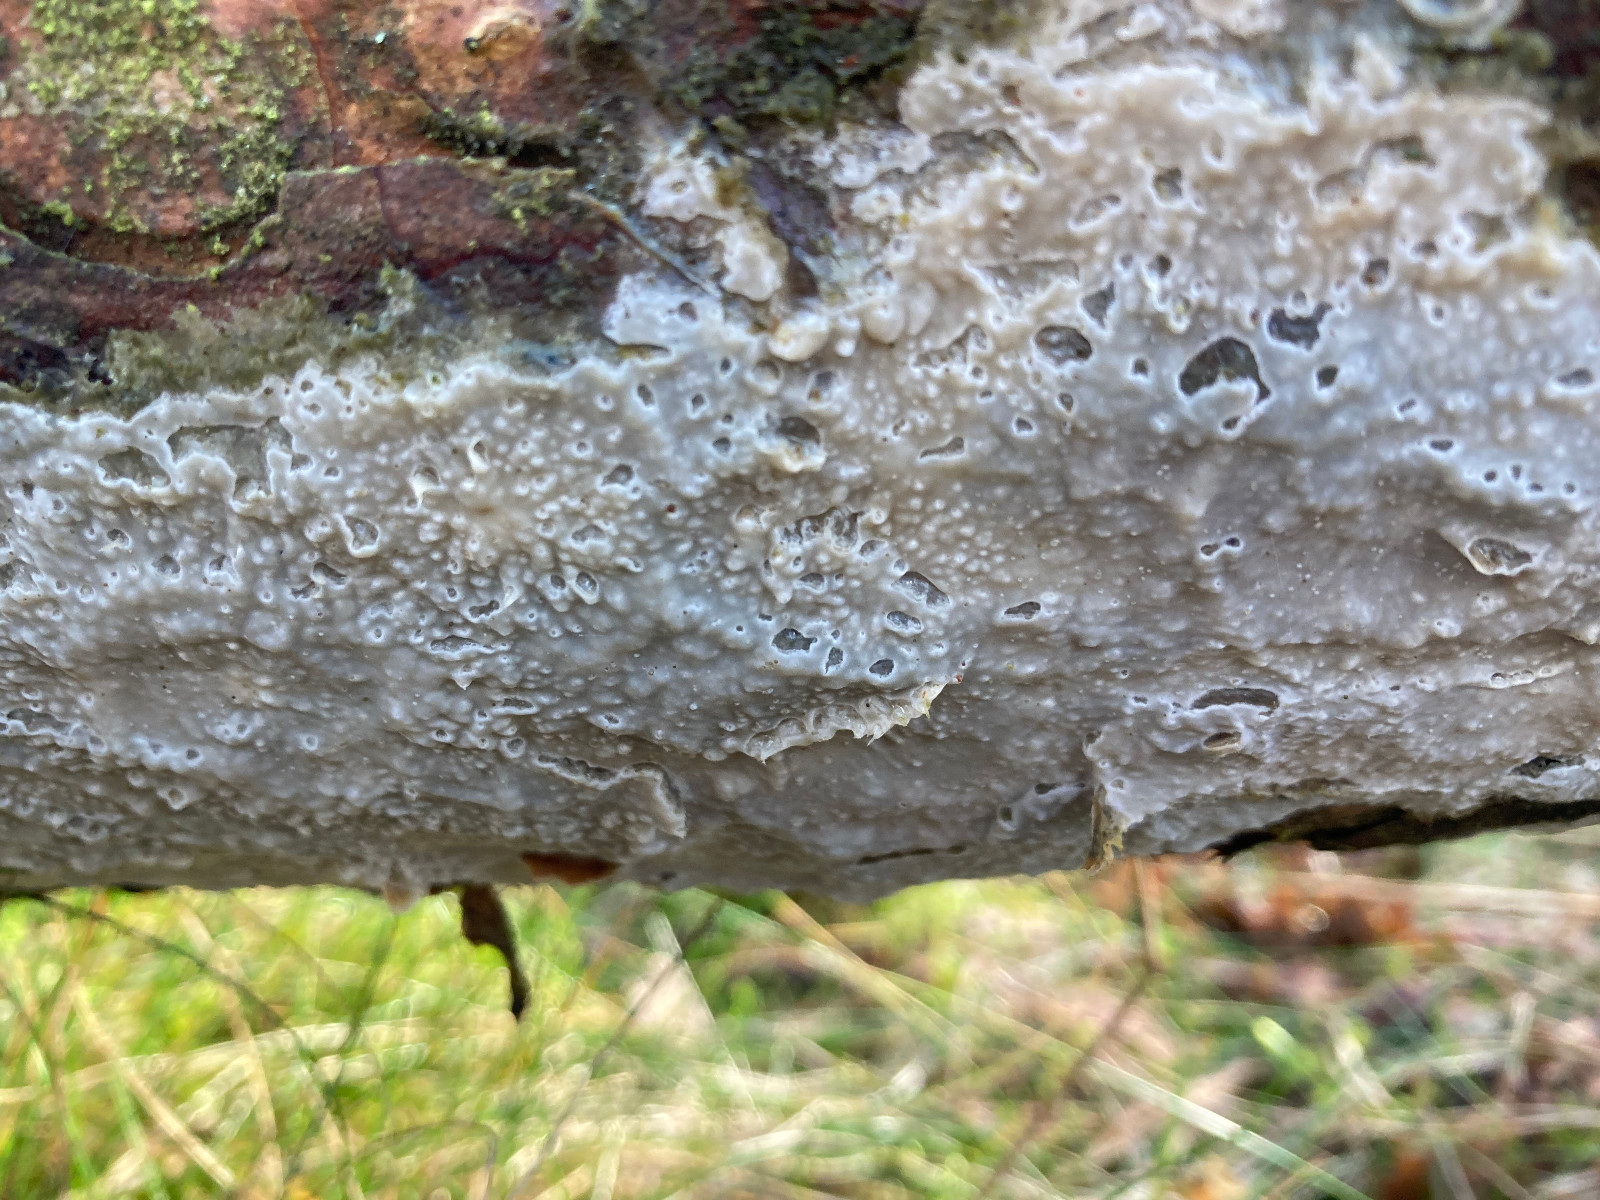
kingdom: Fungi
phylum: Basidiomycota
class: Agaricomycetes
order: Polyporales
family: Phanerochaetaceae
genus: Phlebiopsis
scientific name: Phlebiopsis gigantea
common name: kæmpebarksvamp
